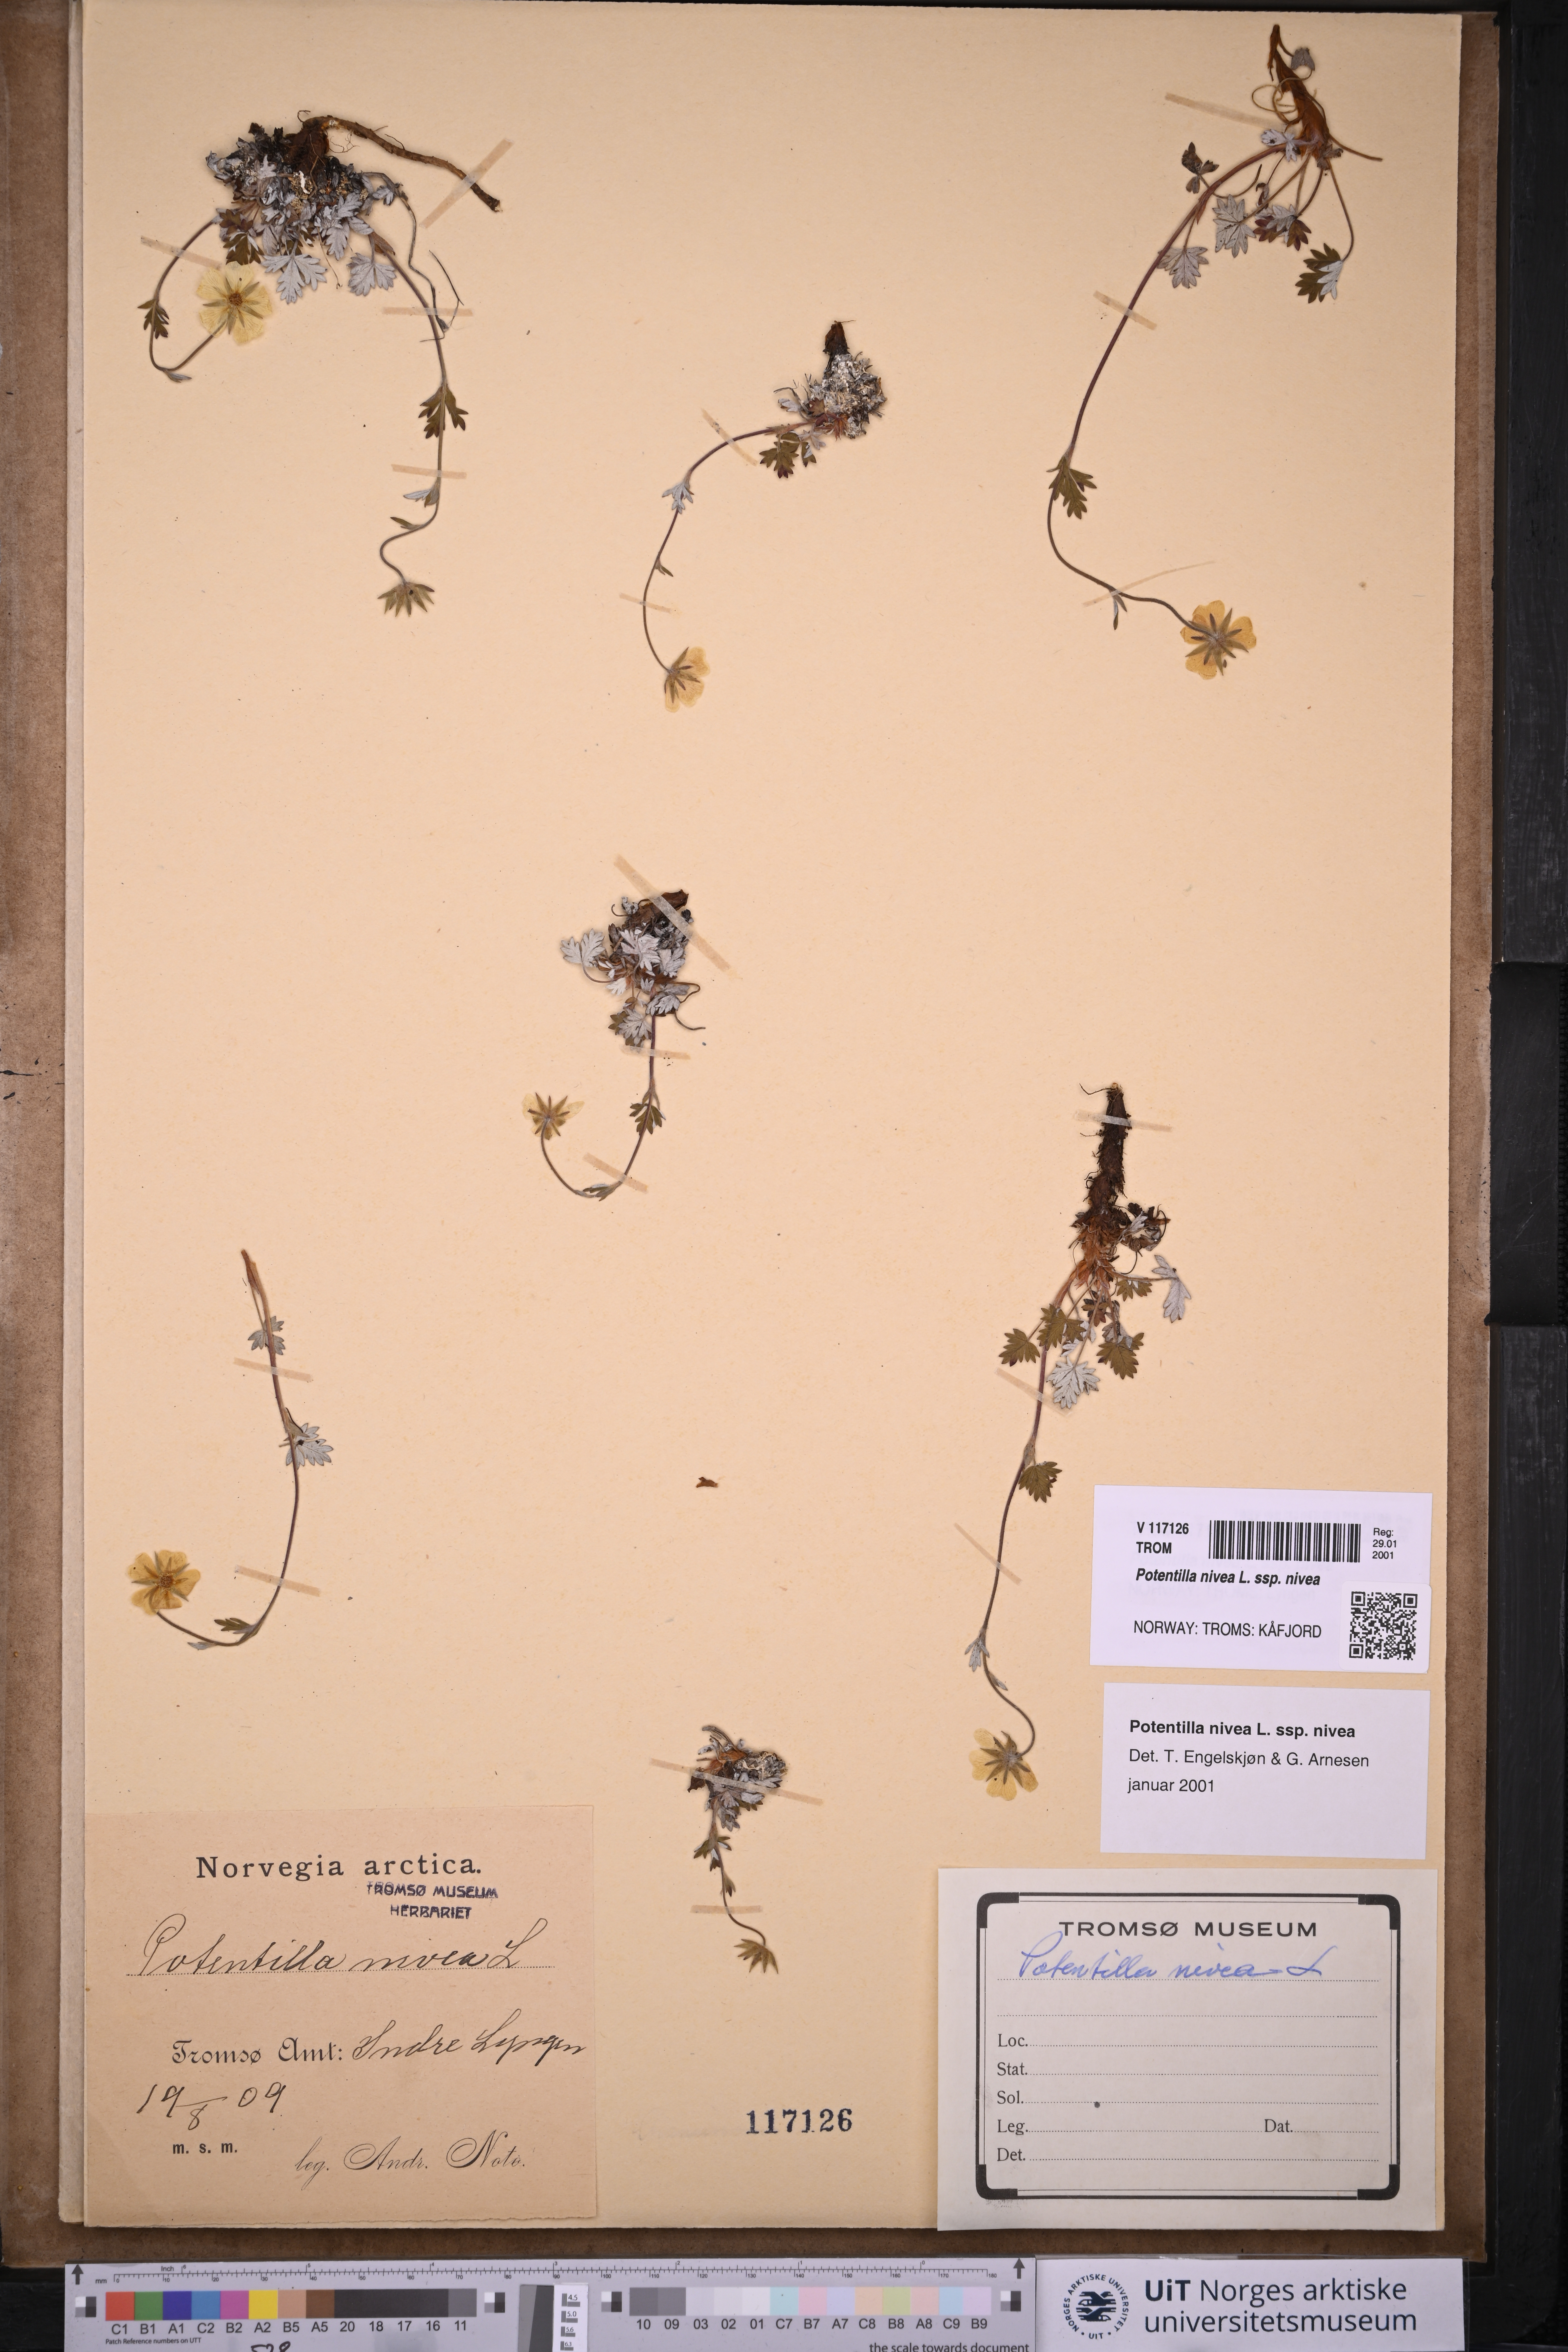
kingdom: Plantae
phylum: Tracheophyta
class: Magnoliopsida
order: Rosales
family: Rosaceae
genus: Potentilla
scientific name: Potentilla nivea
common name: Snow cinquefoil
